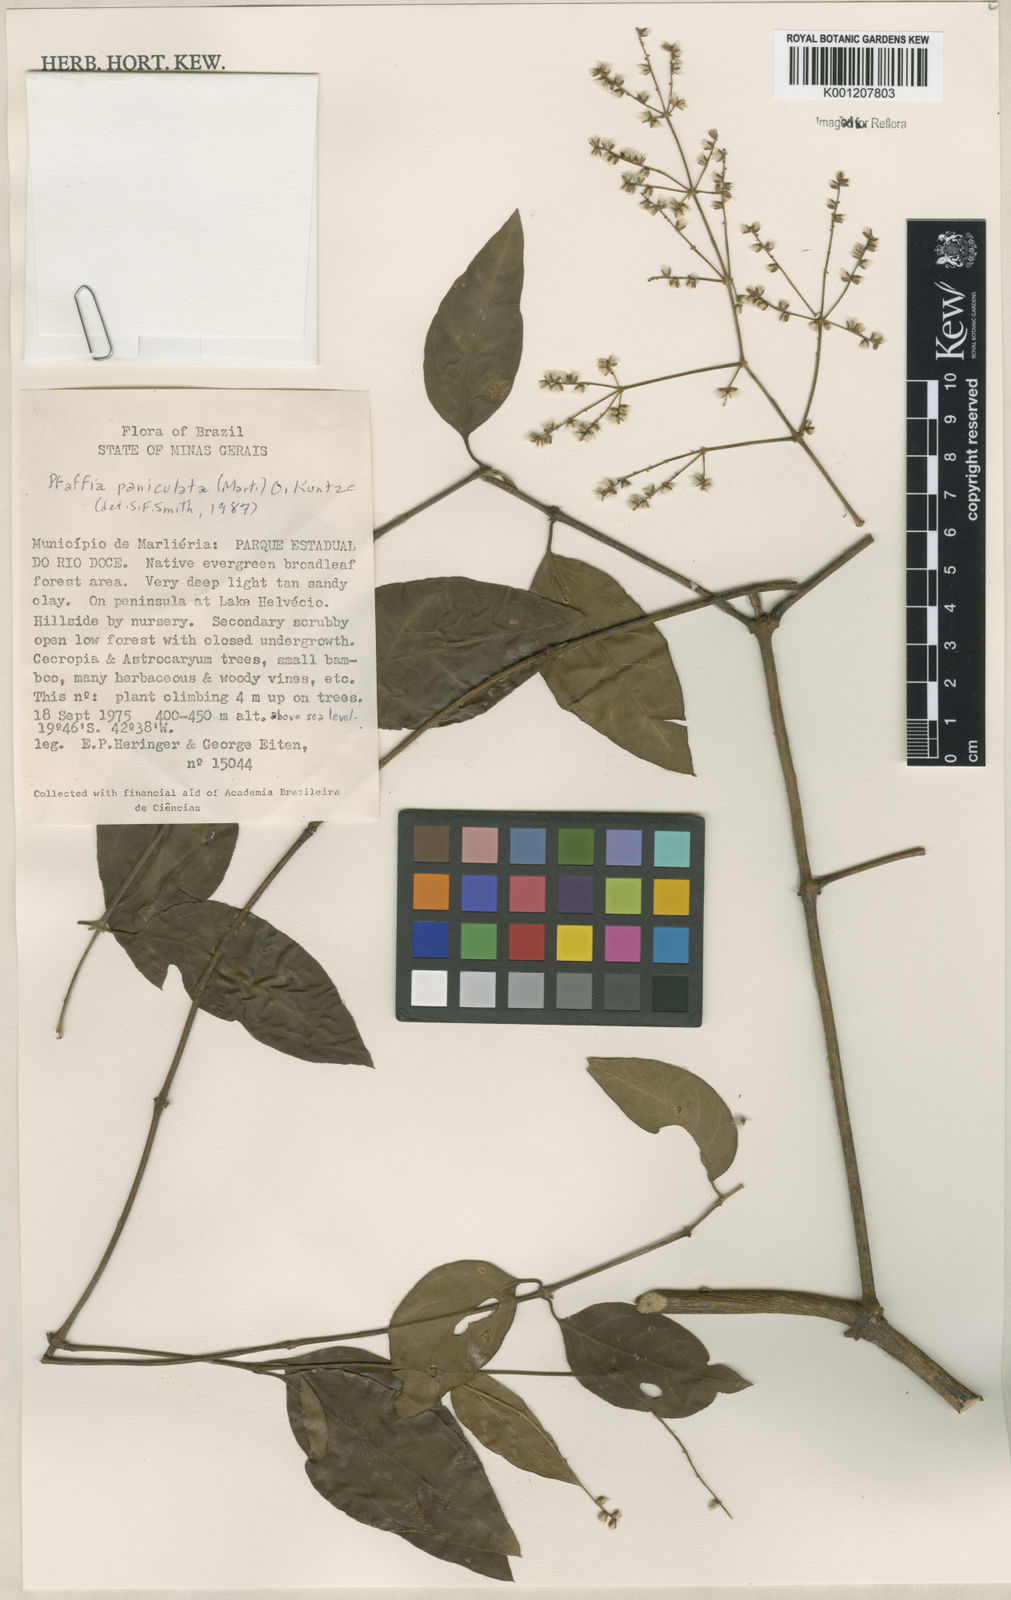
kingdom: Plantae
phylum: Tracheophyta
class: Magnoliopsida
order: Caryophyllales
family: Amaranthaceae
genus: Hebanthe
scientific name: Hebanthe erianthos
